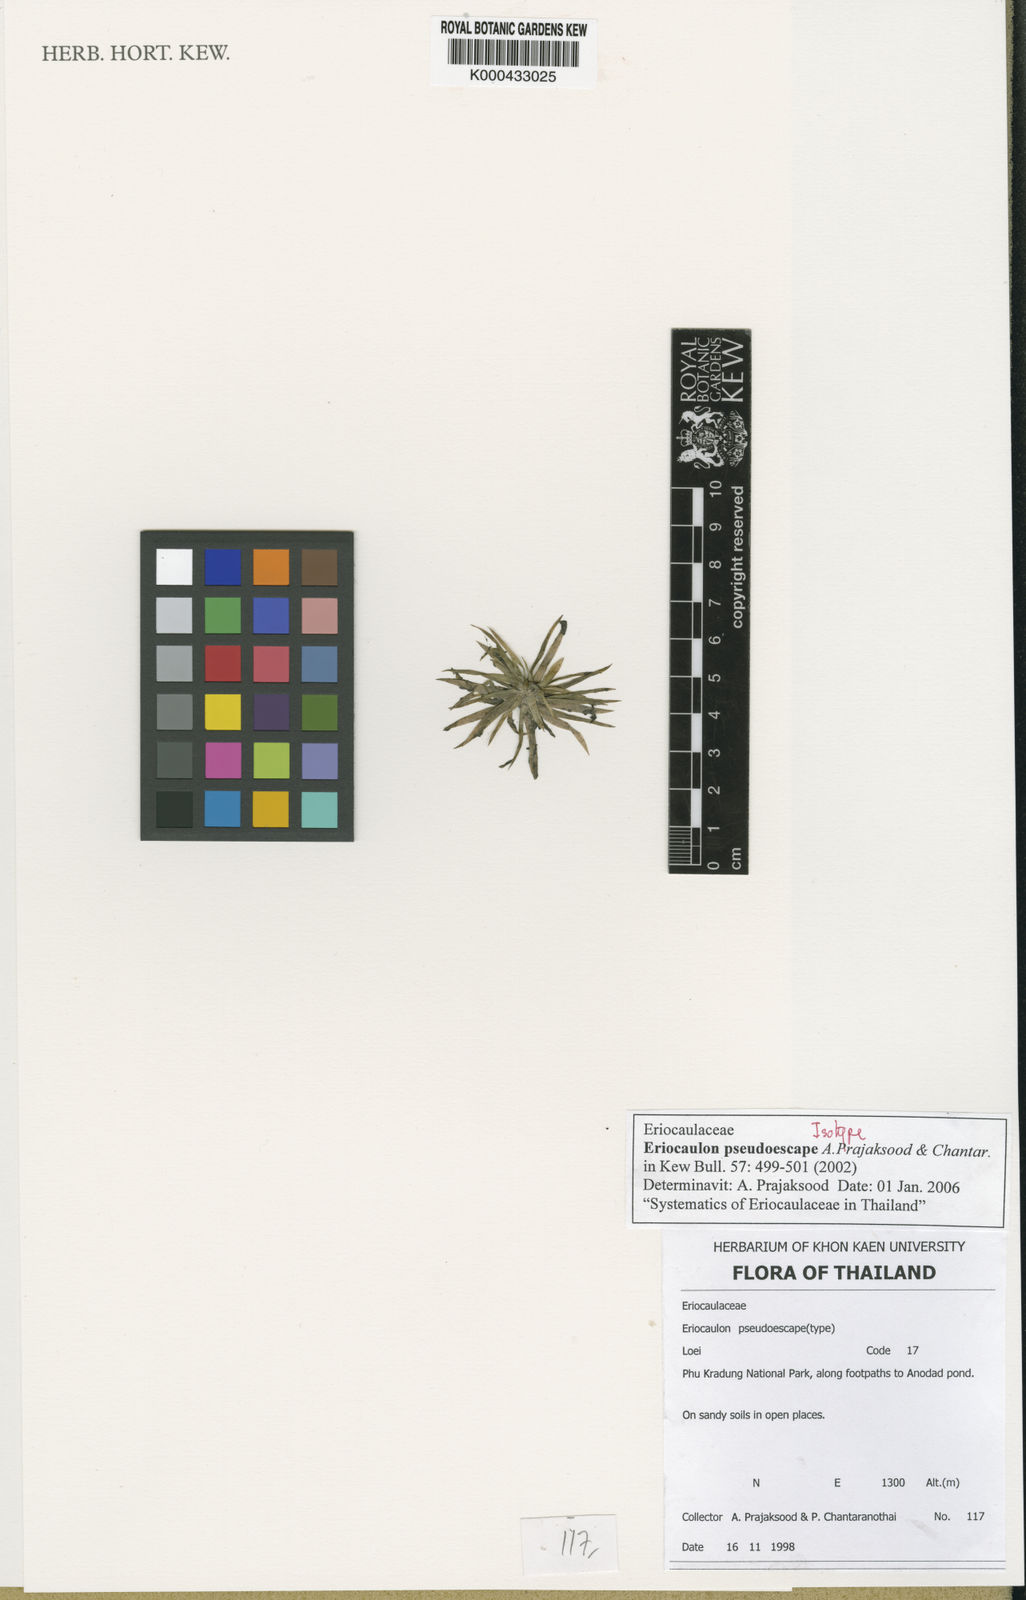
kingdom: Plantae
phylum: Tracheophyta
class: Liliopsida
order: Poales
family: Eriocaulaceae
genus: Eriocaulon
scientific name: Eriocaulon pseudoescape
